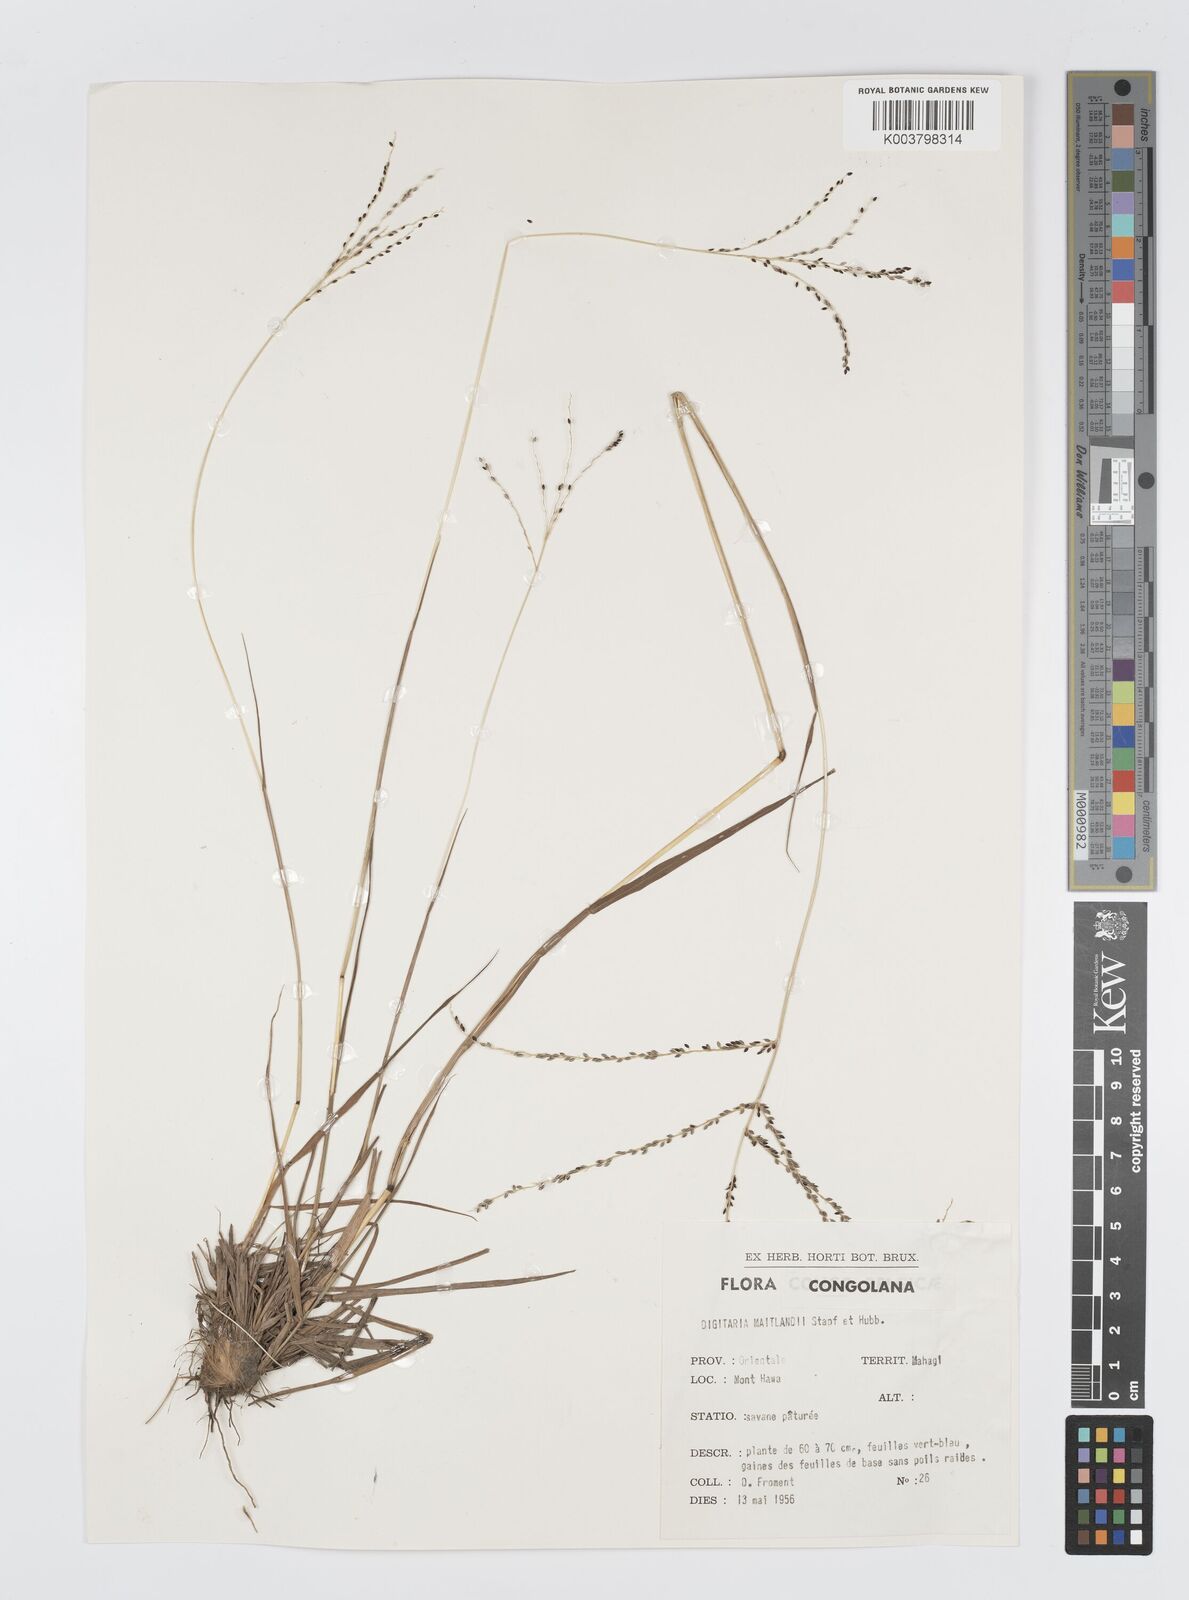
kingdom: Plantae
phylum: Tracheophyta
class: Liliopsida
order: Poales
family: Poaceae
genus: Digitaria
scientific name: Digitaria maitlandii
